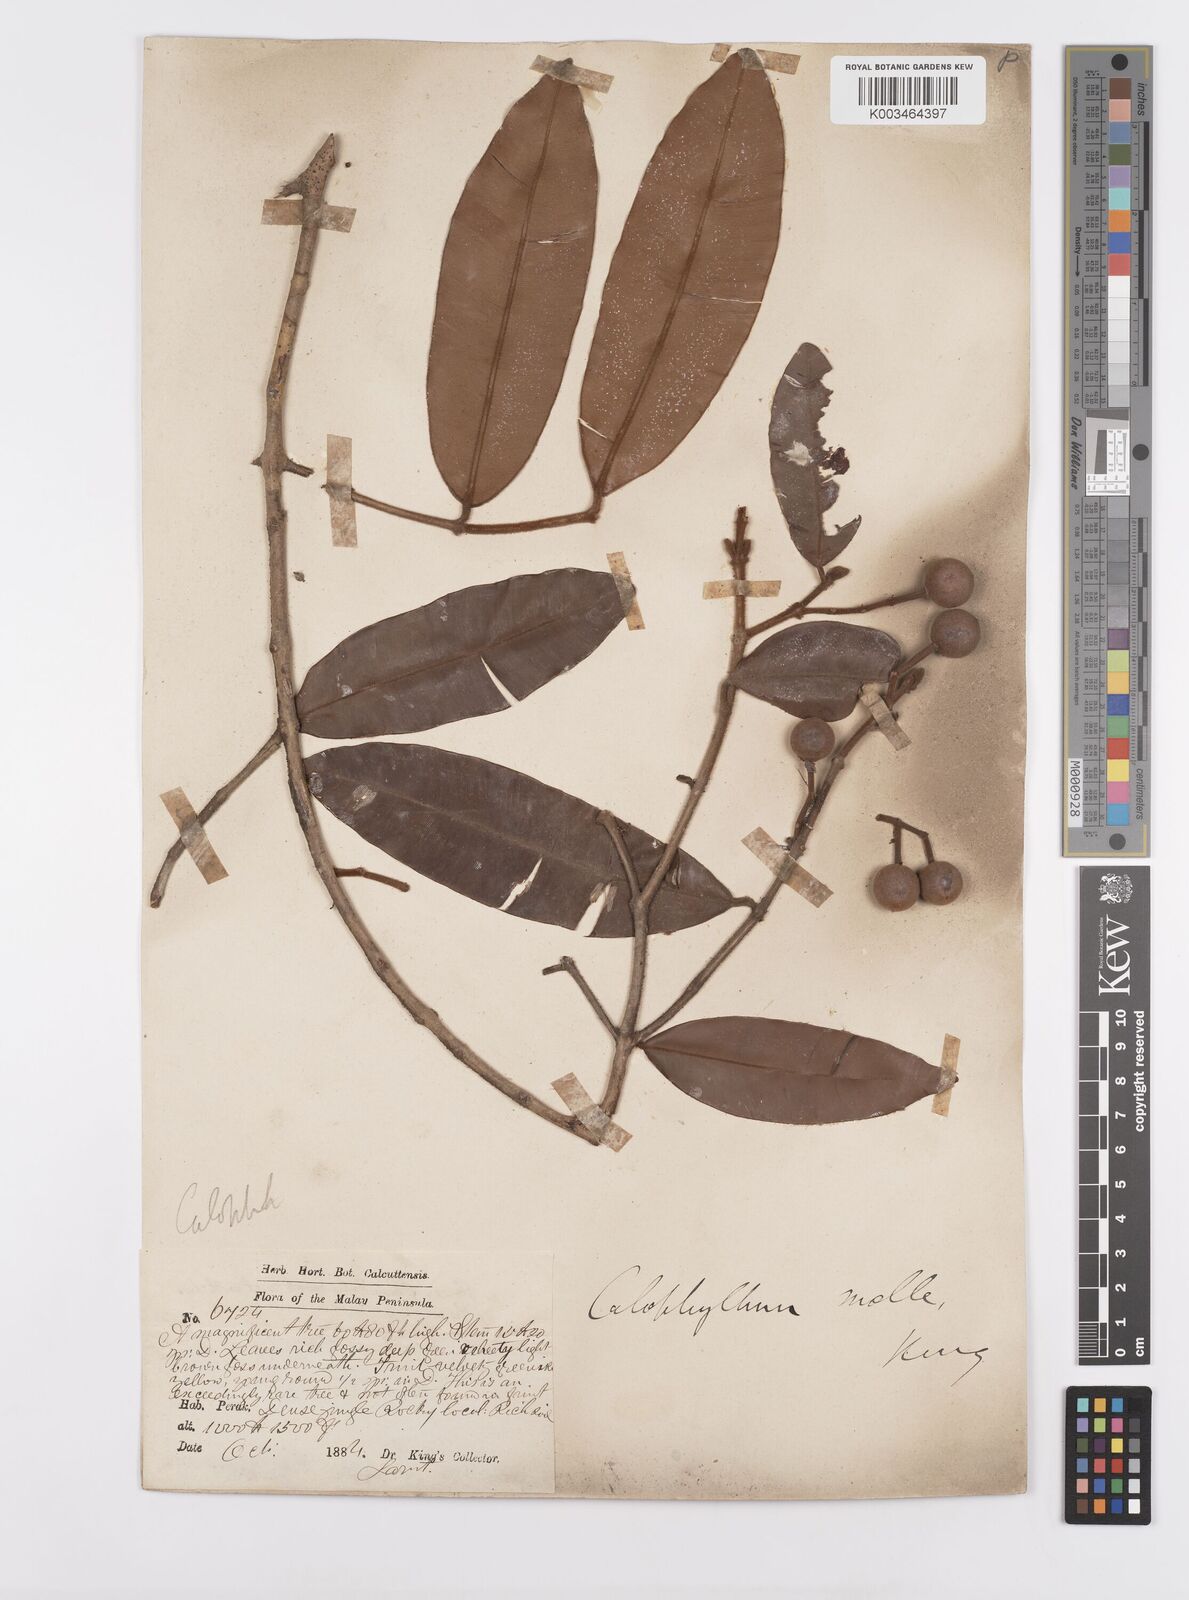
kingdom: Plantae
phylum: Tracheophyta
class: Magnoliopsida
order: Malpighiales
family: Calophyllaceae
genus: Calophyllum
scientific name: Calophyllum molle
